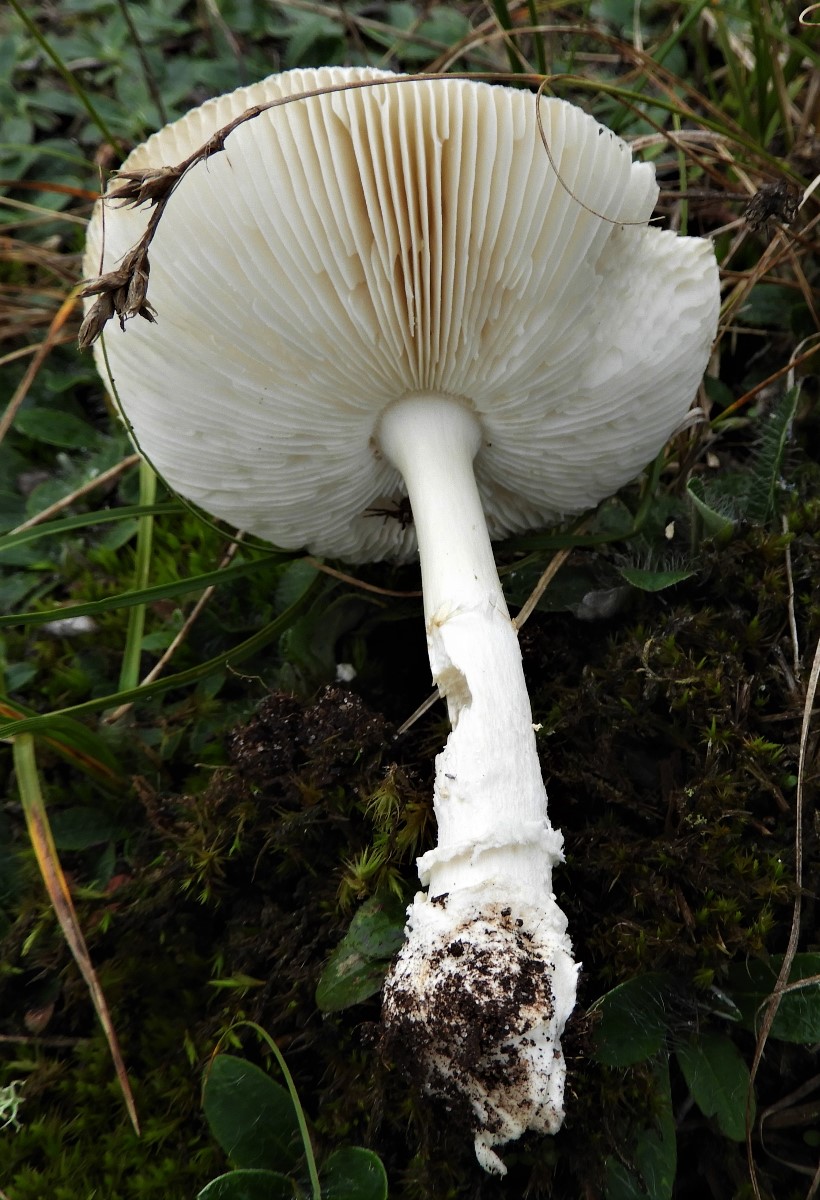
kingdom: Fungi
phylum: Basidiomycota
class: Agaricomycetes
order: Agaricales
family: Amanitaceae
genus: Amanita
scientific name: Amanita pantherina
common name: panter-fluesvamp
